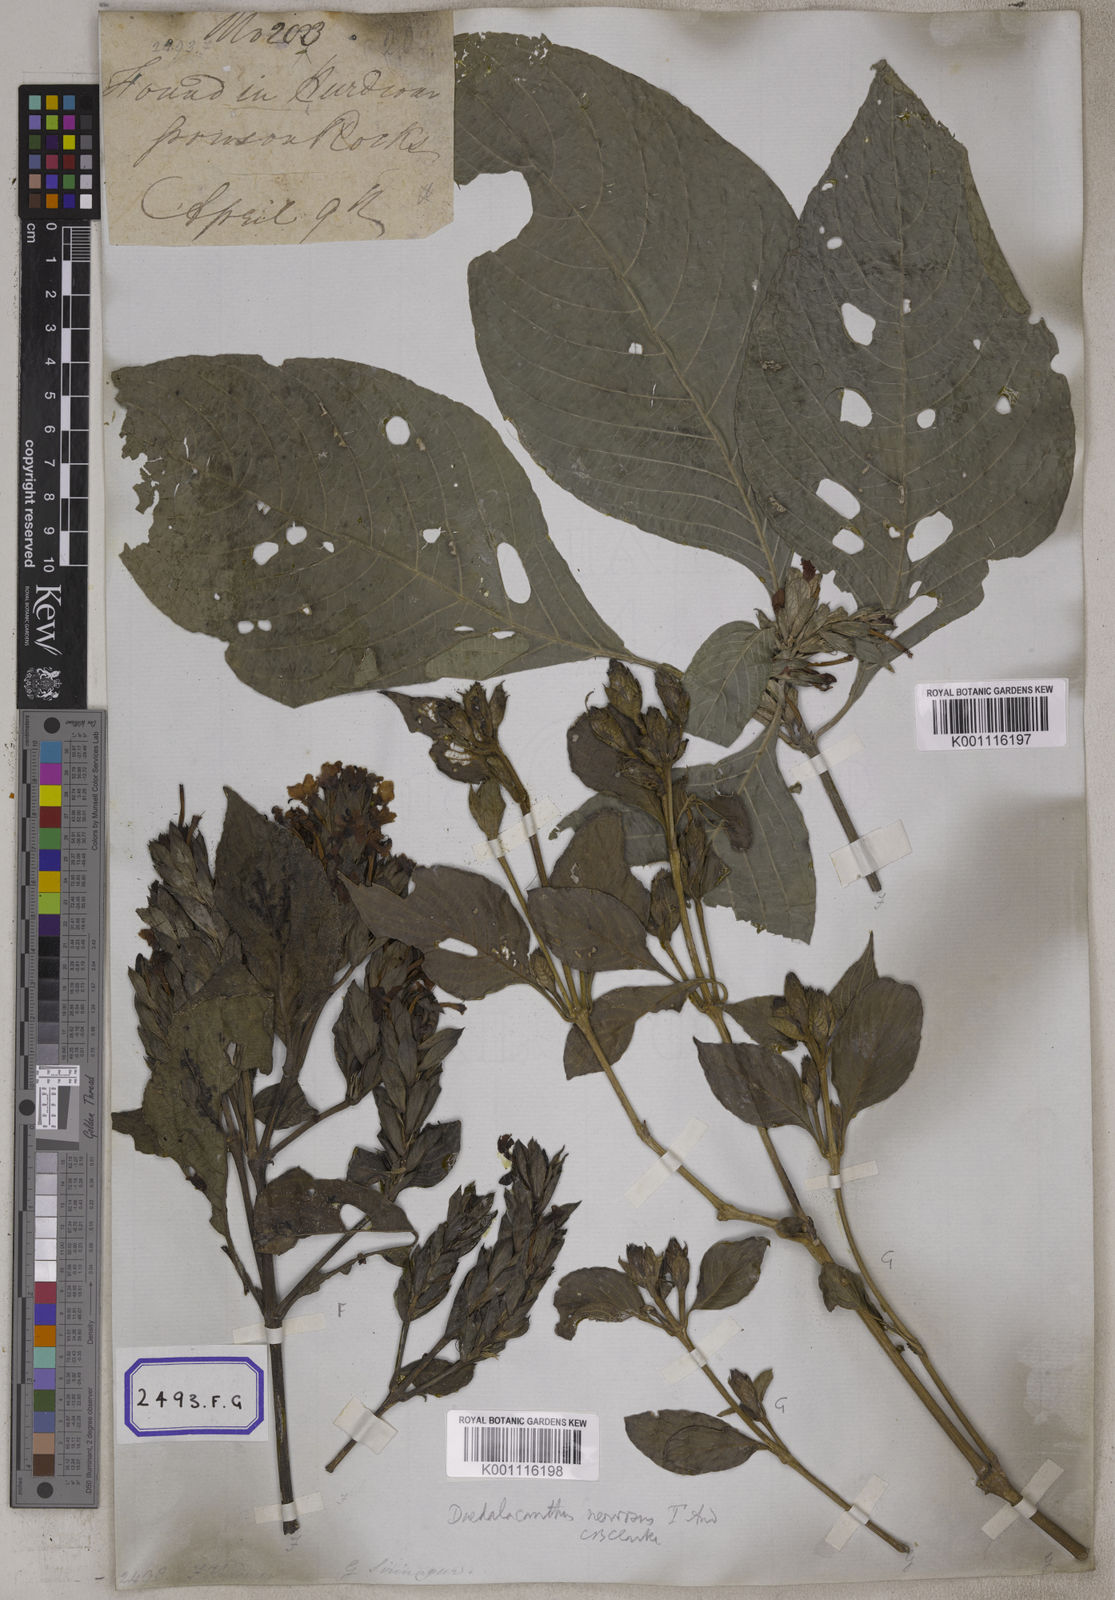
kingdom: Plantae
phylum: Tracheophyta
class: Magnoliopsida
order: Lamiales
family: Acanthaceae
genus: Eranthemum
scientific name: Eranthemum
